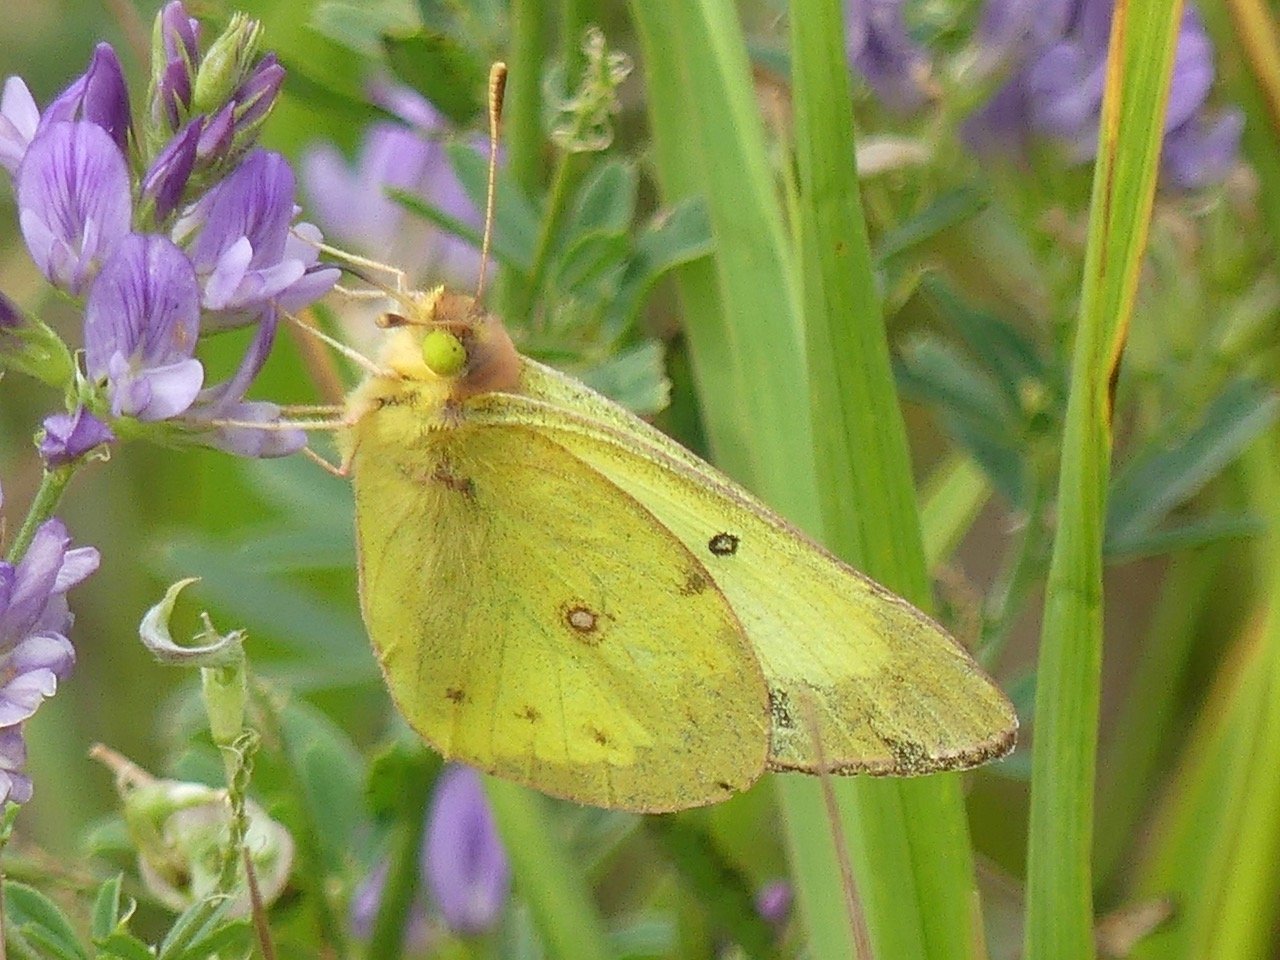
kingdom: Animalia
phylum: Arthropoda
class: Insecta
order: Lepidoptera
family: Pieridae
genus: Colias
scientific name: Colias philodice
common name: Clouded Sulphur
